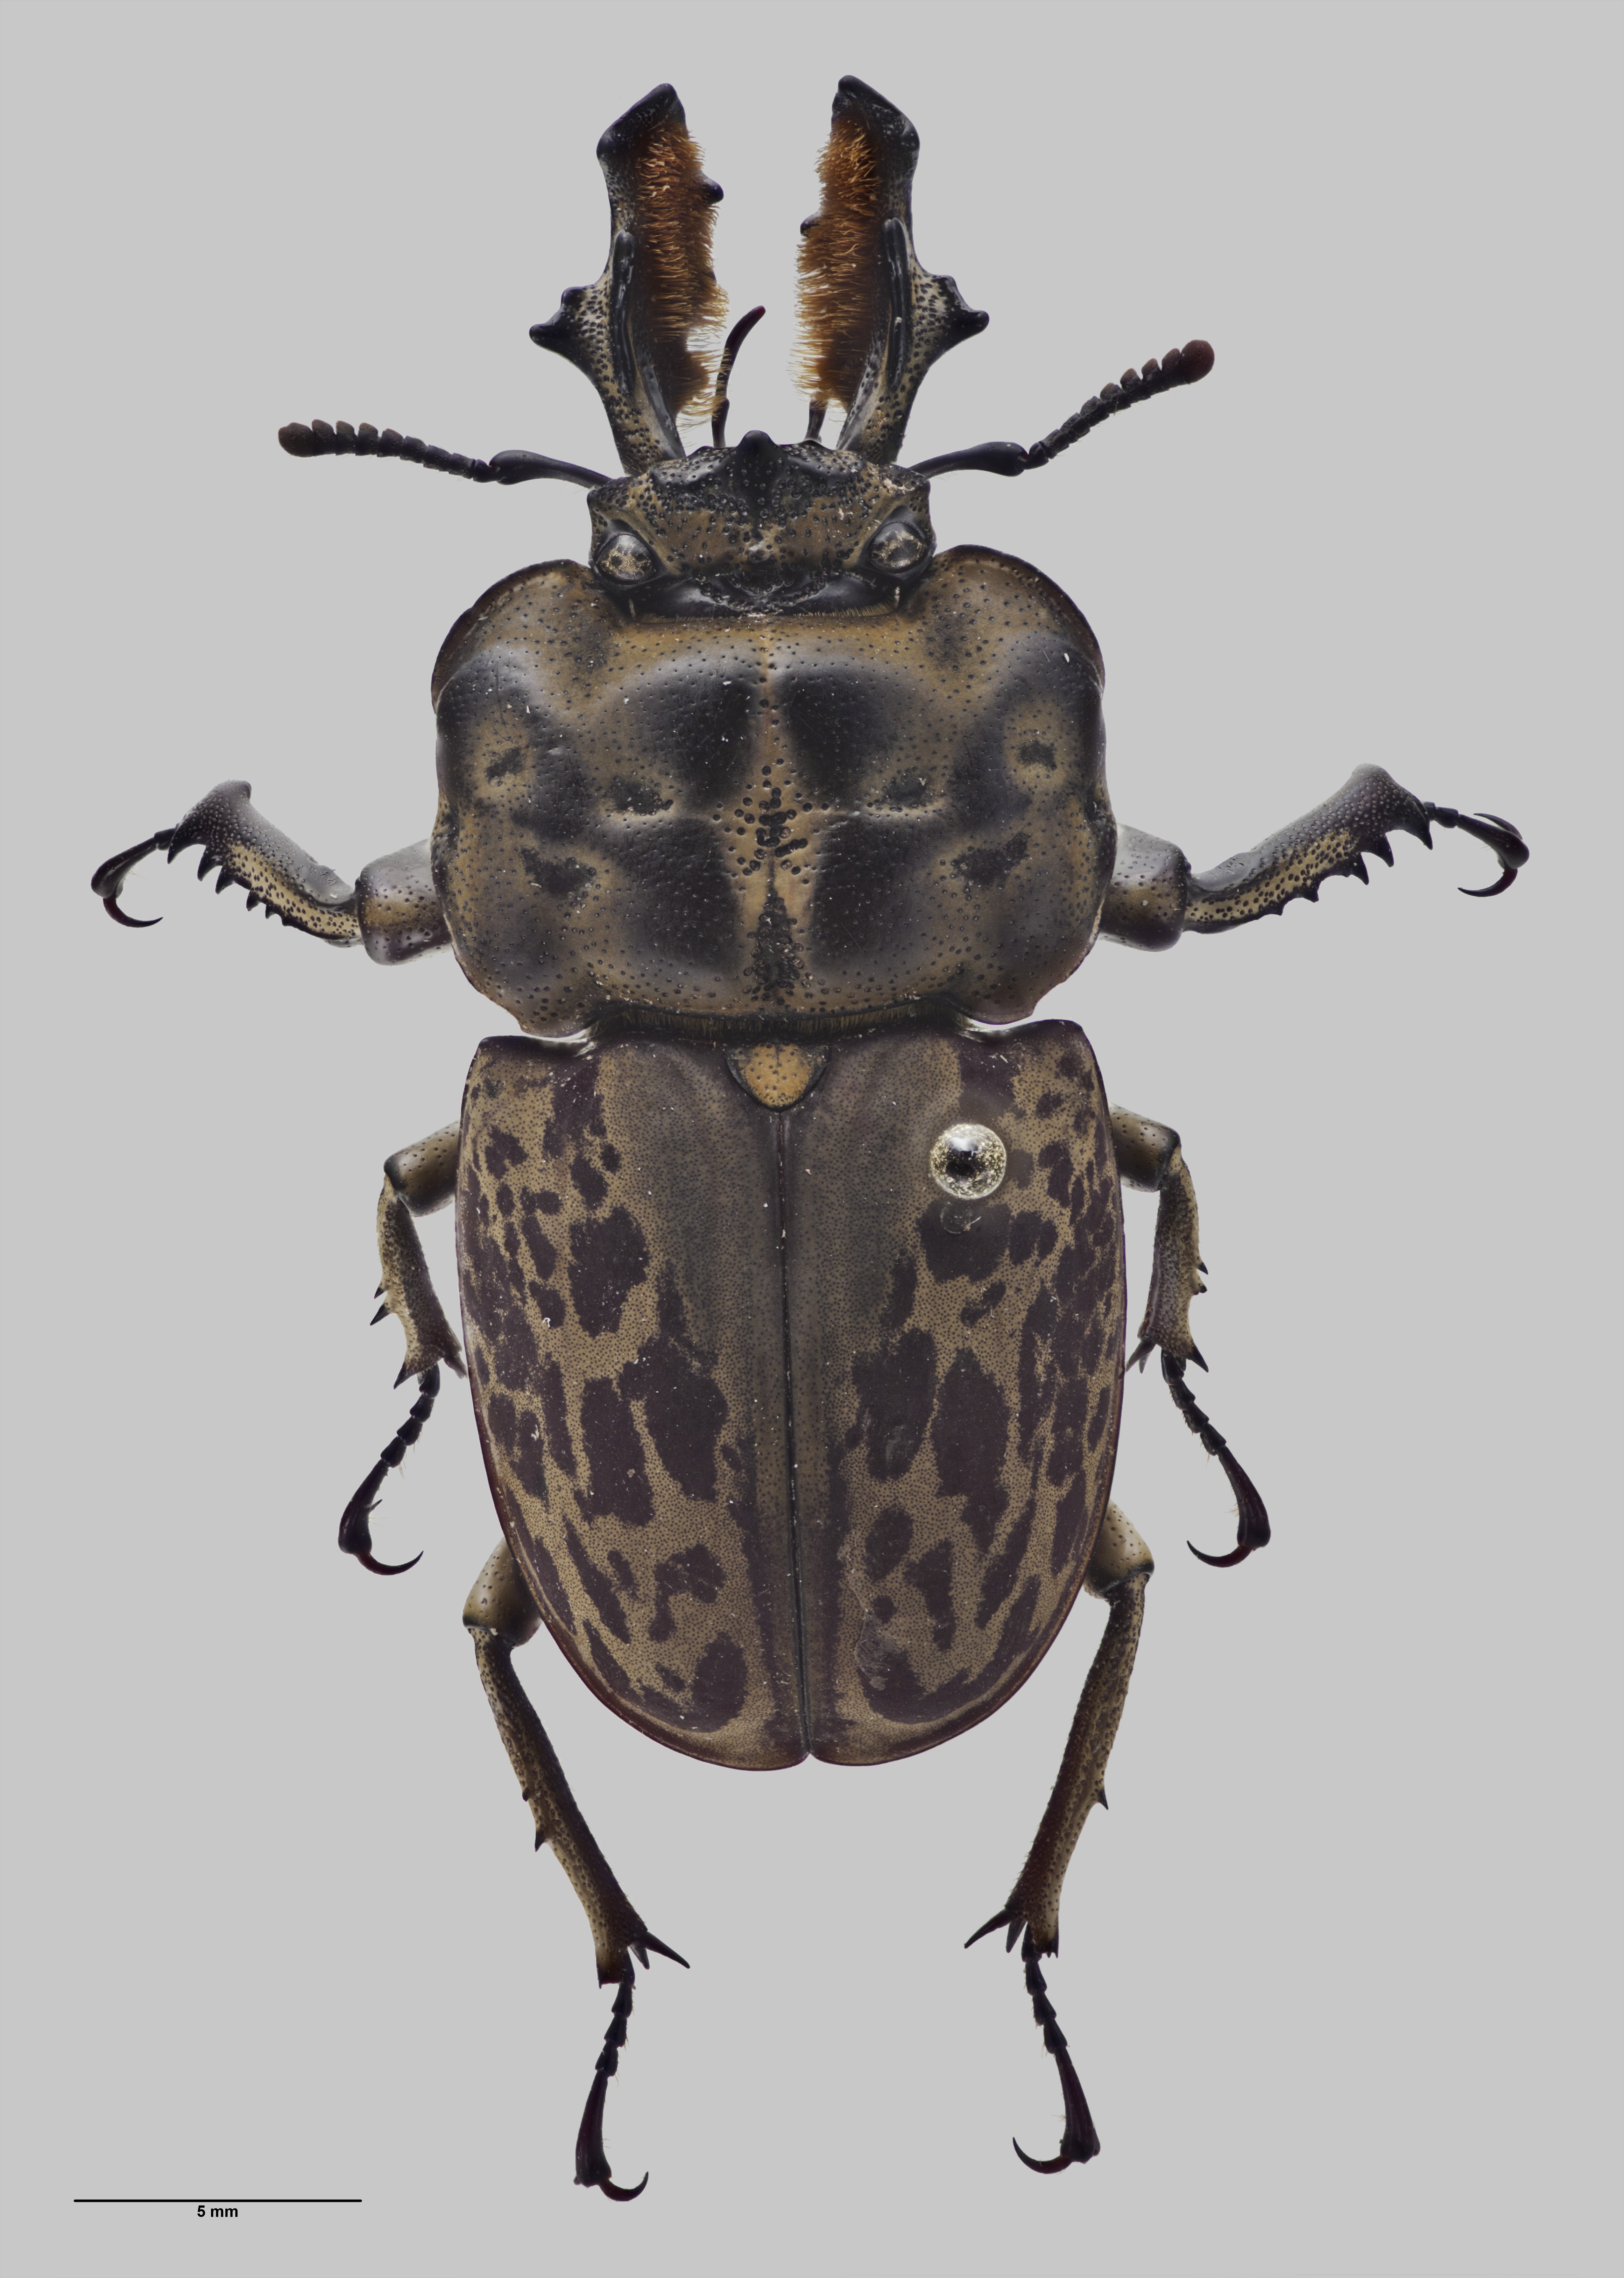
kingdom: Animalia
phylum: Arthropoda
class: Insecta
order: Coleoptera
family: Lucanidae
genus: Ryssonotus
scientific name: Ryssonotus nebulosus
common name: Brown stag beetle
